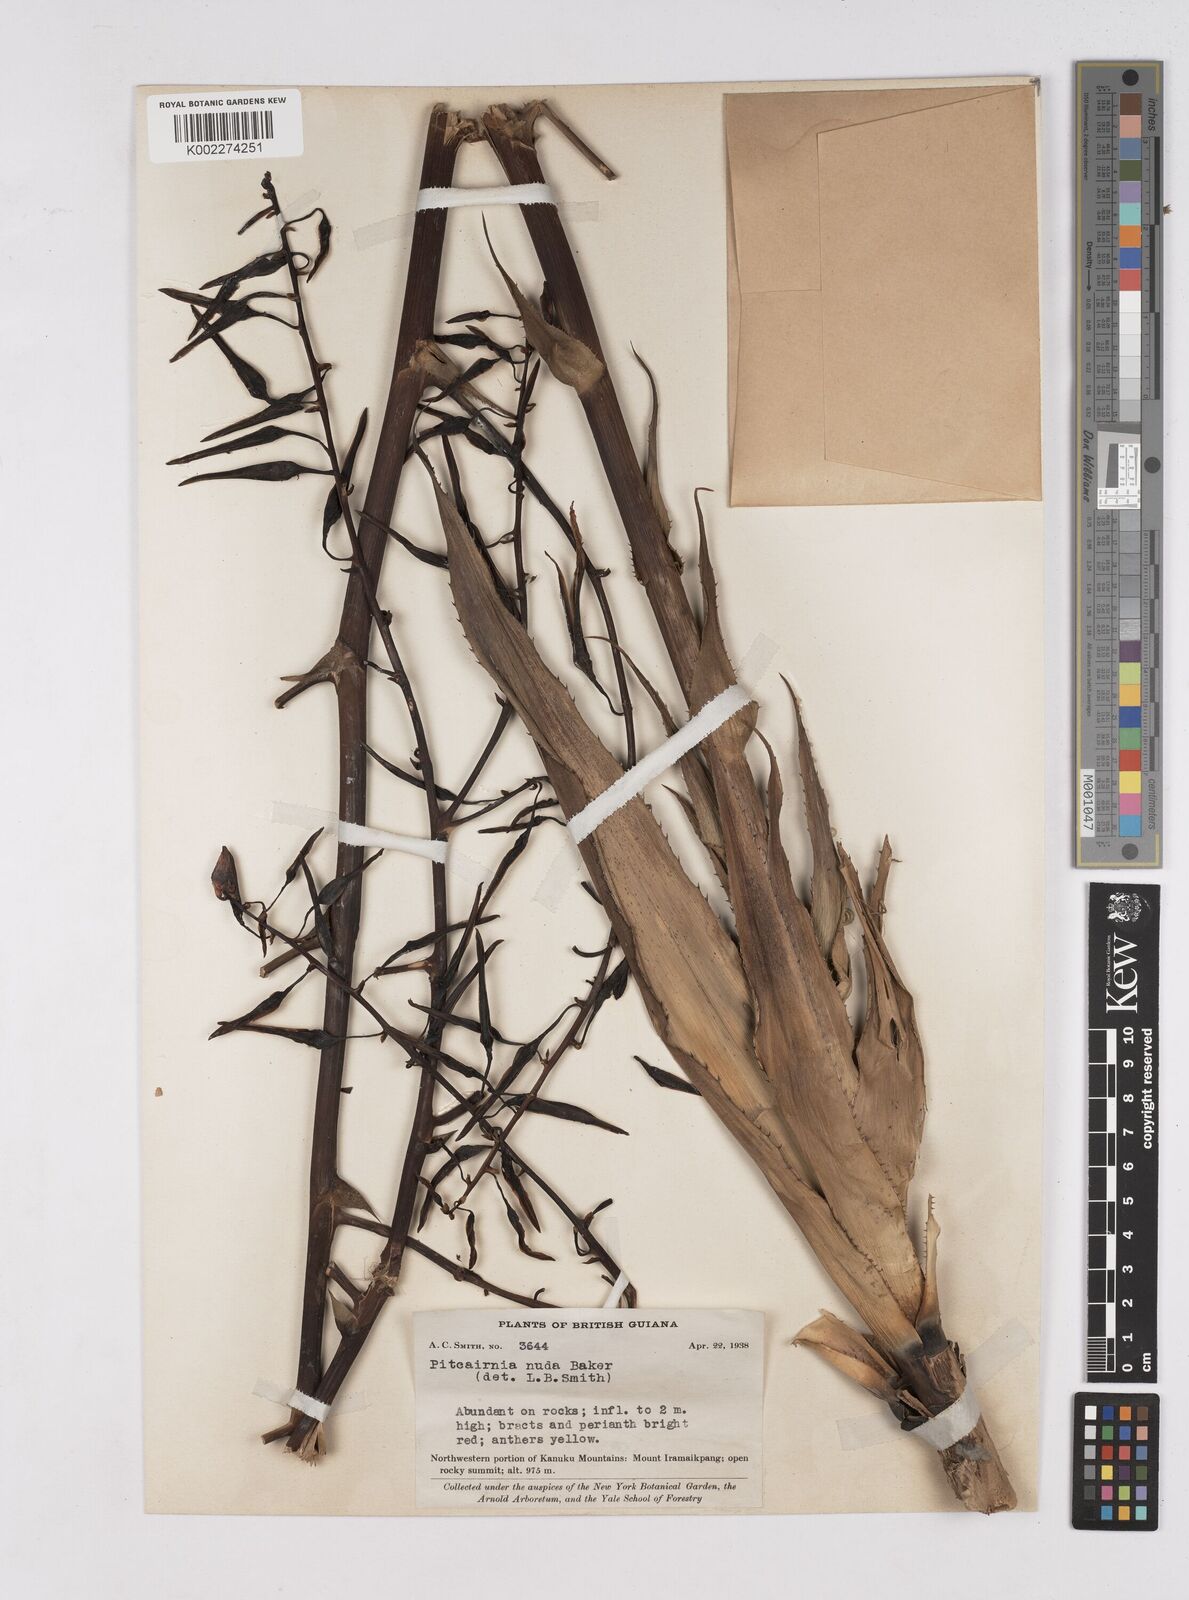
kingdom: Plantae
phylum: Tracheophyta
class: Liliopsida
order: Poales
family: Bromeliaceae
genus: Pitcairnia
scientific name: Pitcairnia nuda
